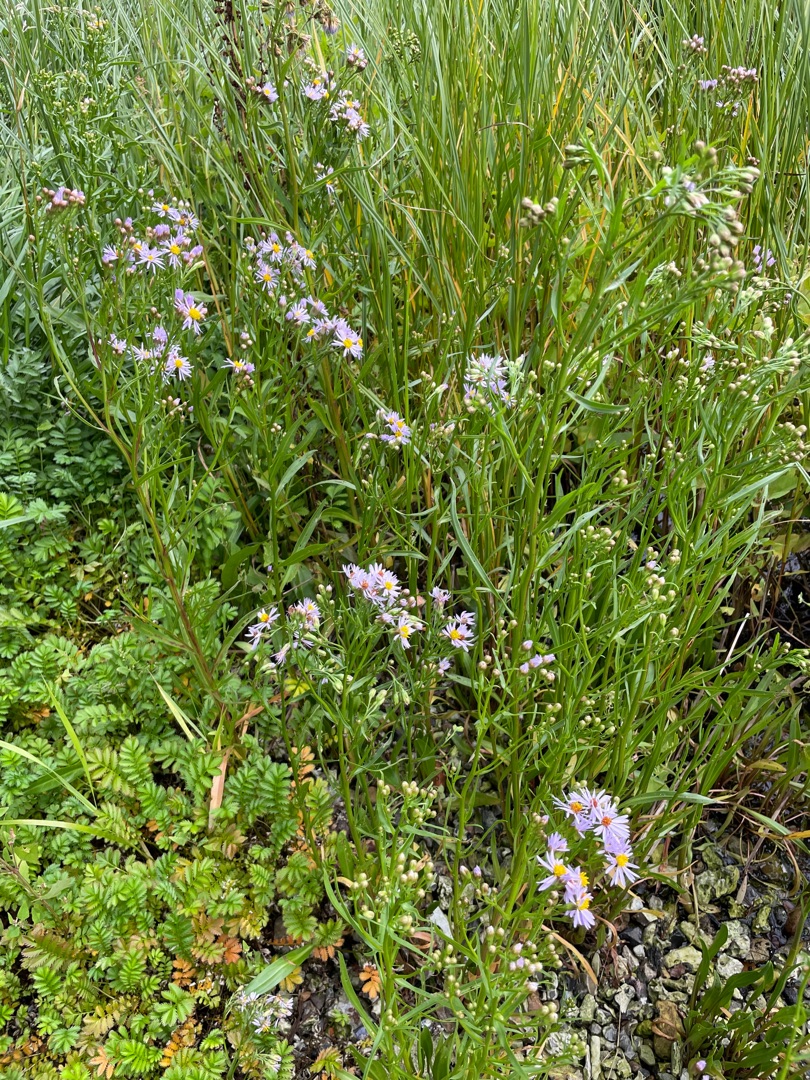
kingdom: Plantae
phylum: Tracheophyta
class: Magnoliopsida
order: Asterales
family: Asteraceae
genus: Tripolium
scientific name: Tripolium pannonicum
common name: Strandasters
